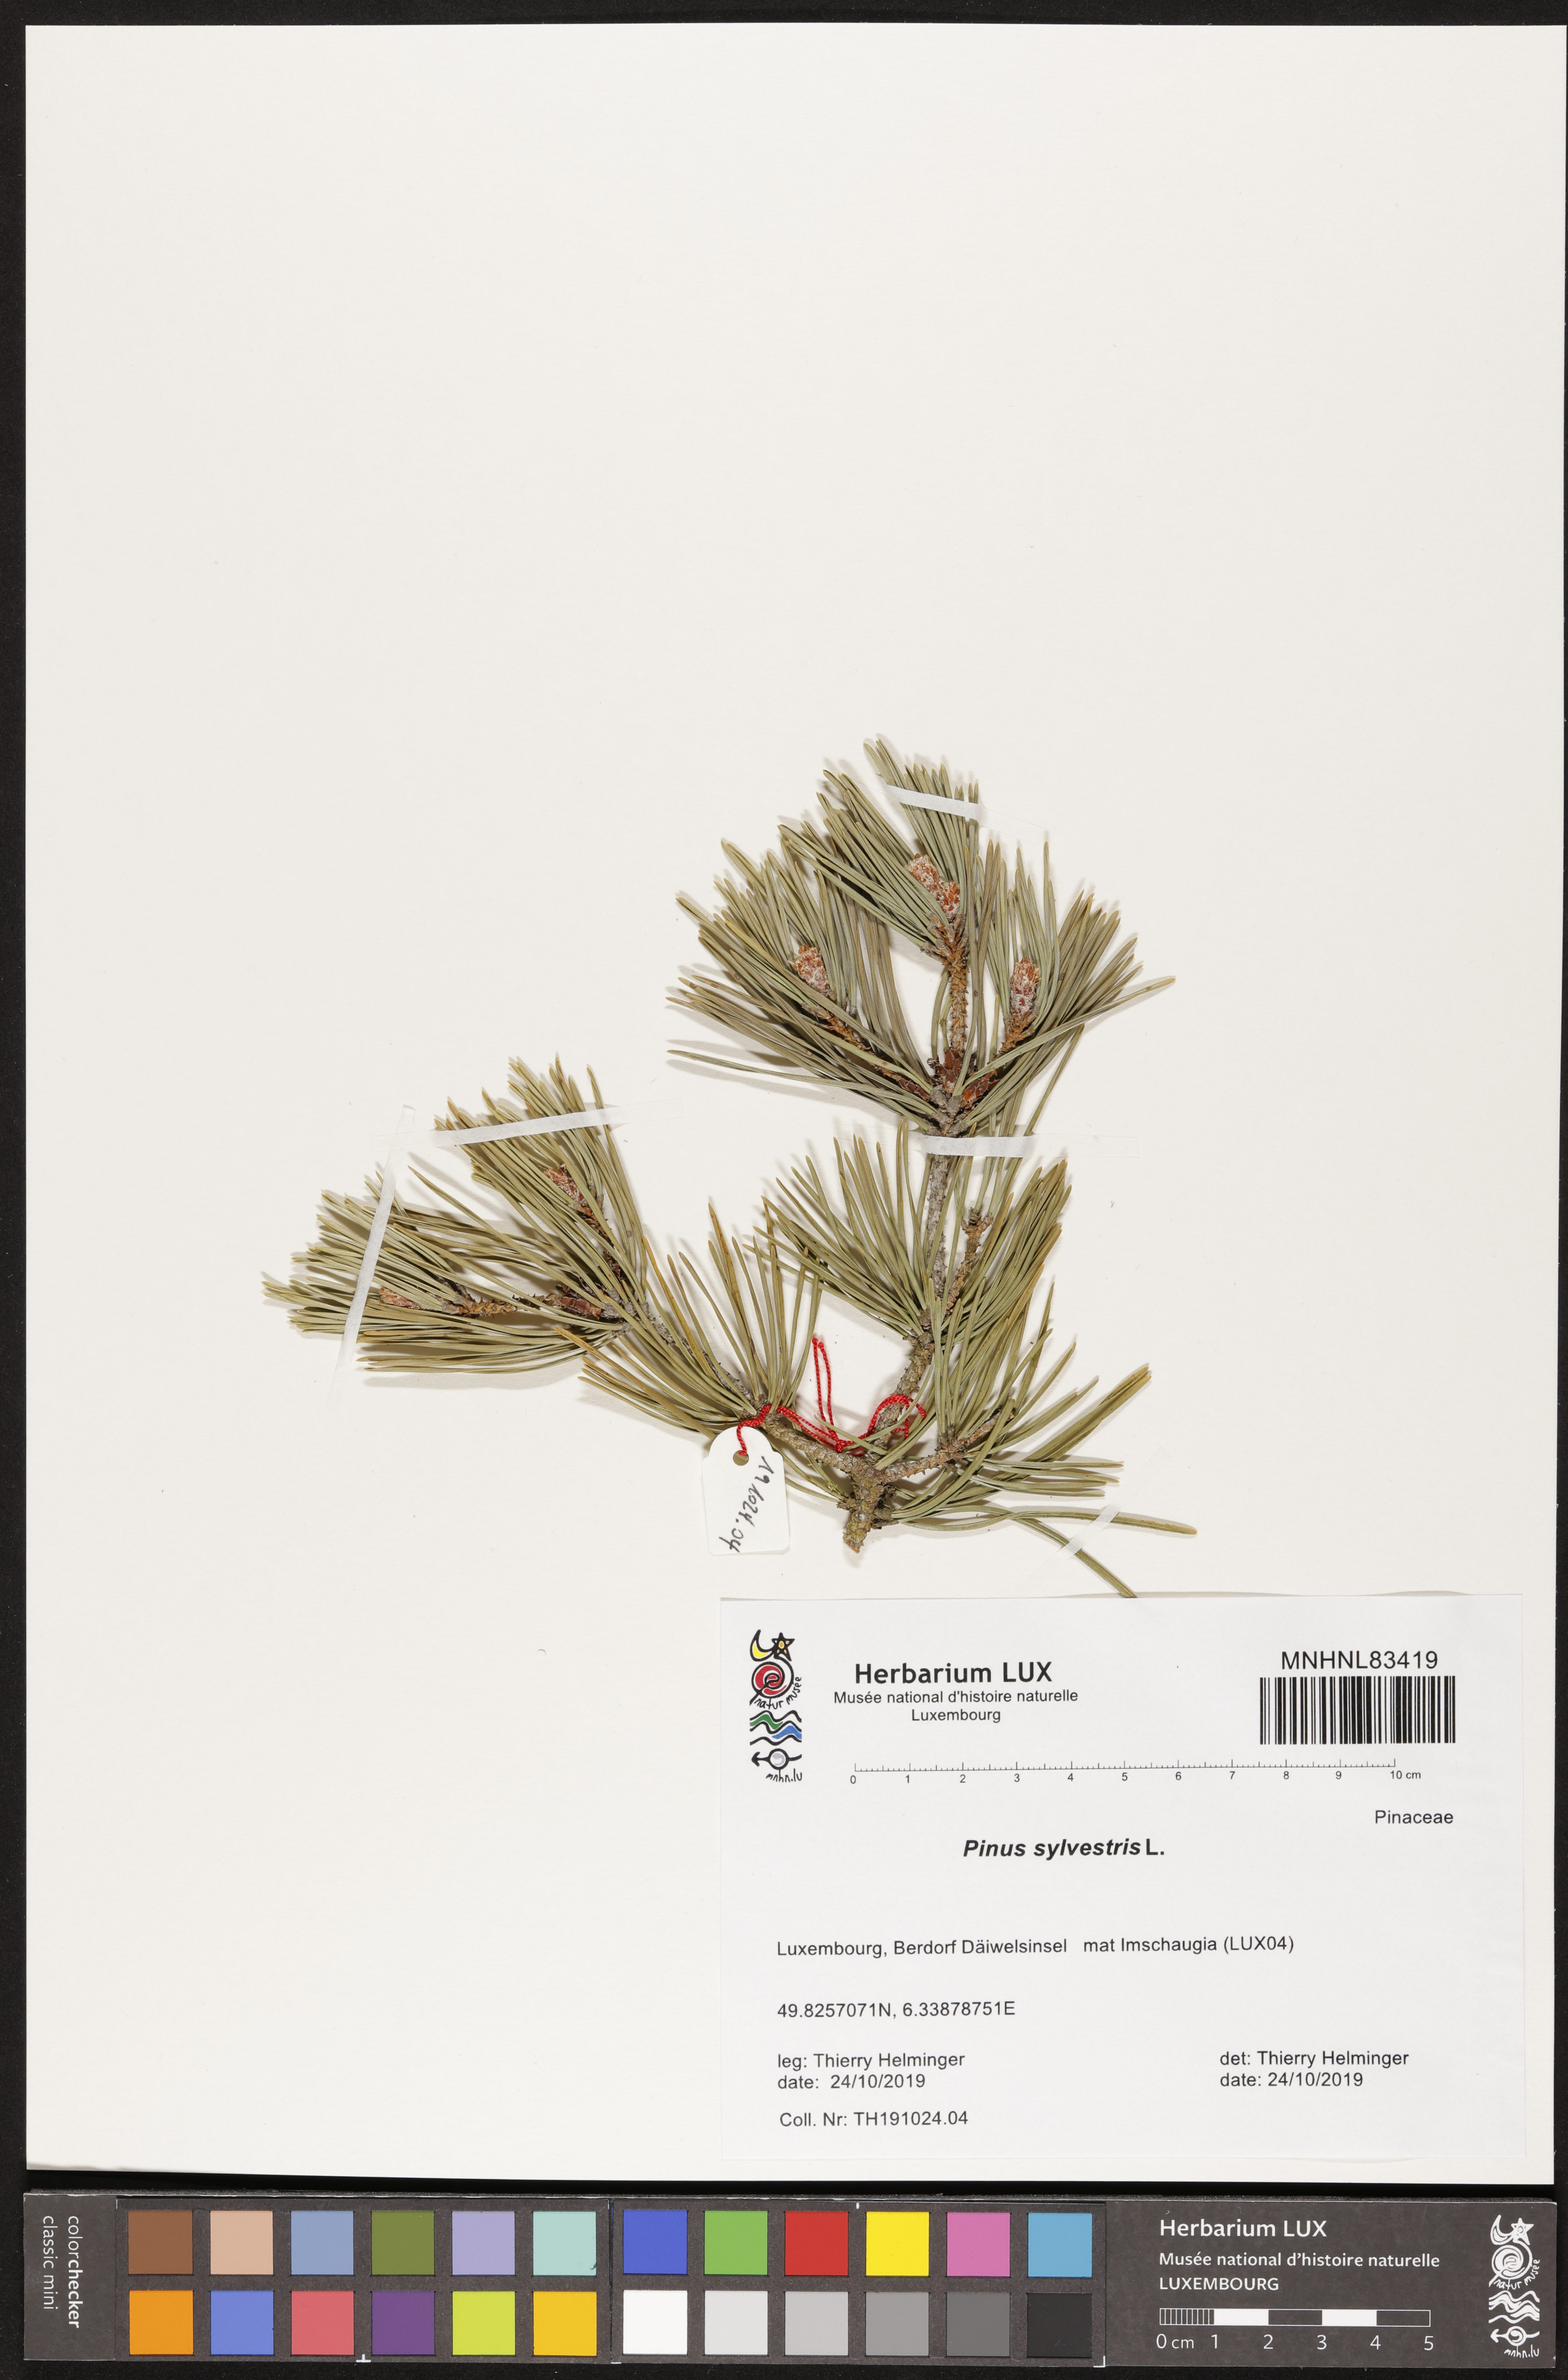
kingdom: Plantae
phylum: Tracheophyta
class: Pinopsida
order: Pinales
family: Pinaceae
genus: Pinus
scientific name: Pinus sylvestris
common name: Scots pine
